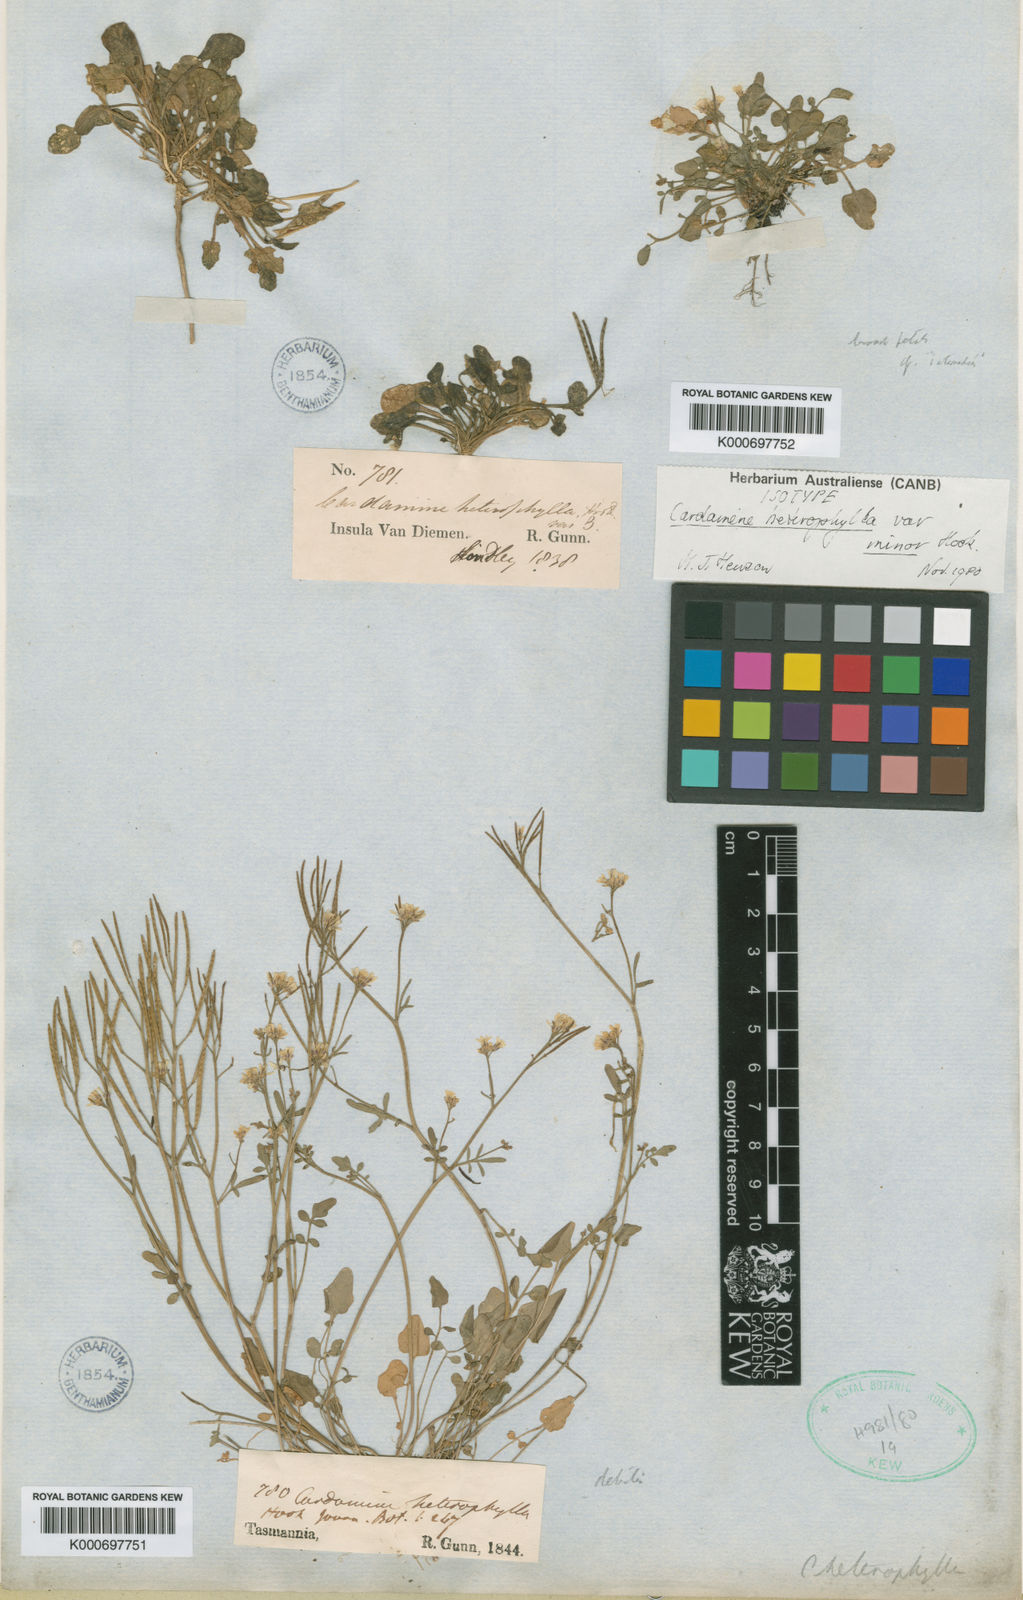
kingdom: Plantae
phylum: Tracheophyta
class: Magnoliopsida
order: Brassicales
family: Brassicaceae
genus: Cardamine
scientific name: Cardamine gunnii
